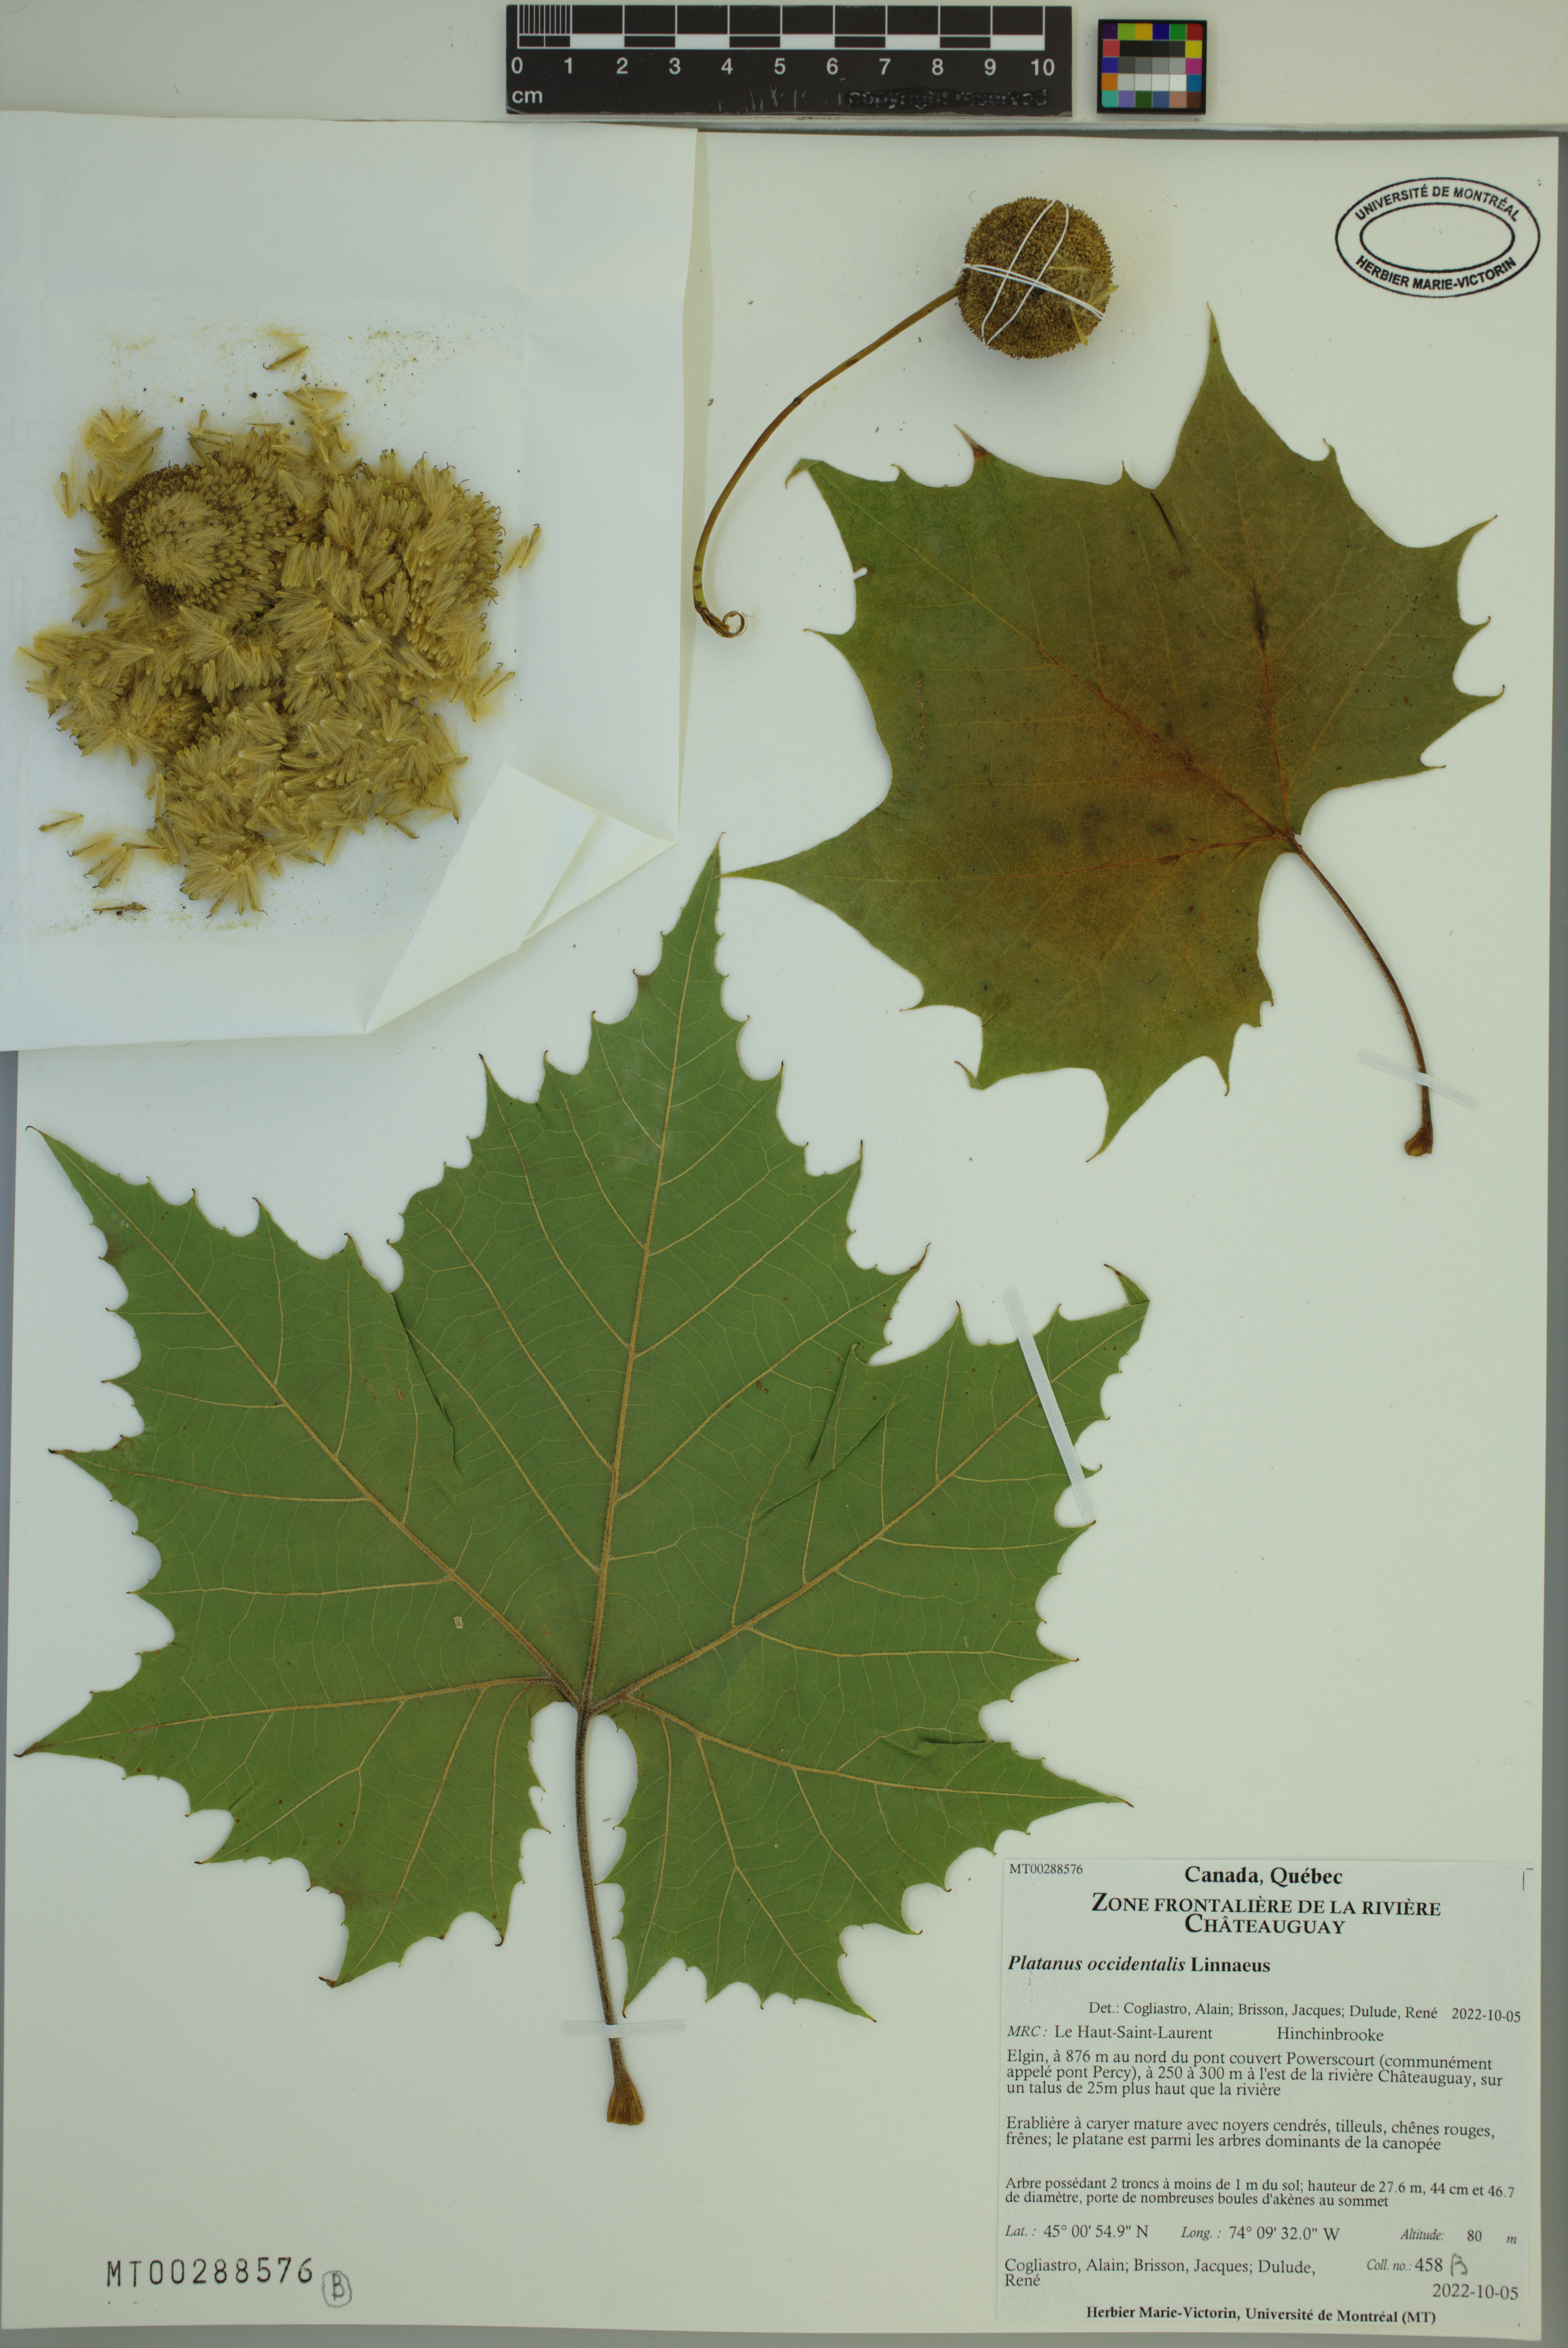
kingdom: Plantae
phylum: Tracheophyta
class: Magnoliopsida
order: Proteales
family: Platanaceae
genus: Platanus
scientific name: Platanus occidentalis
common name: American sycamore
